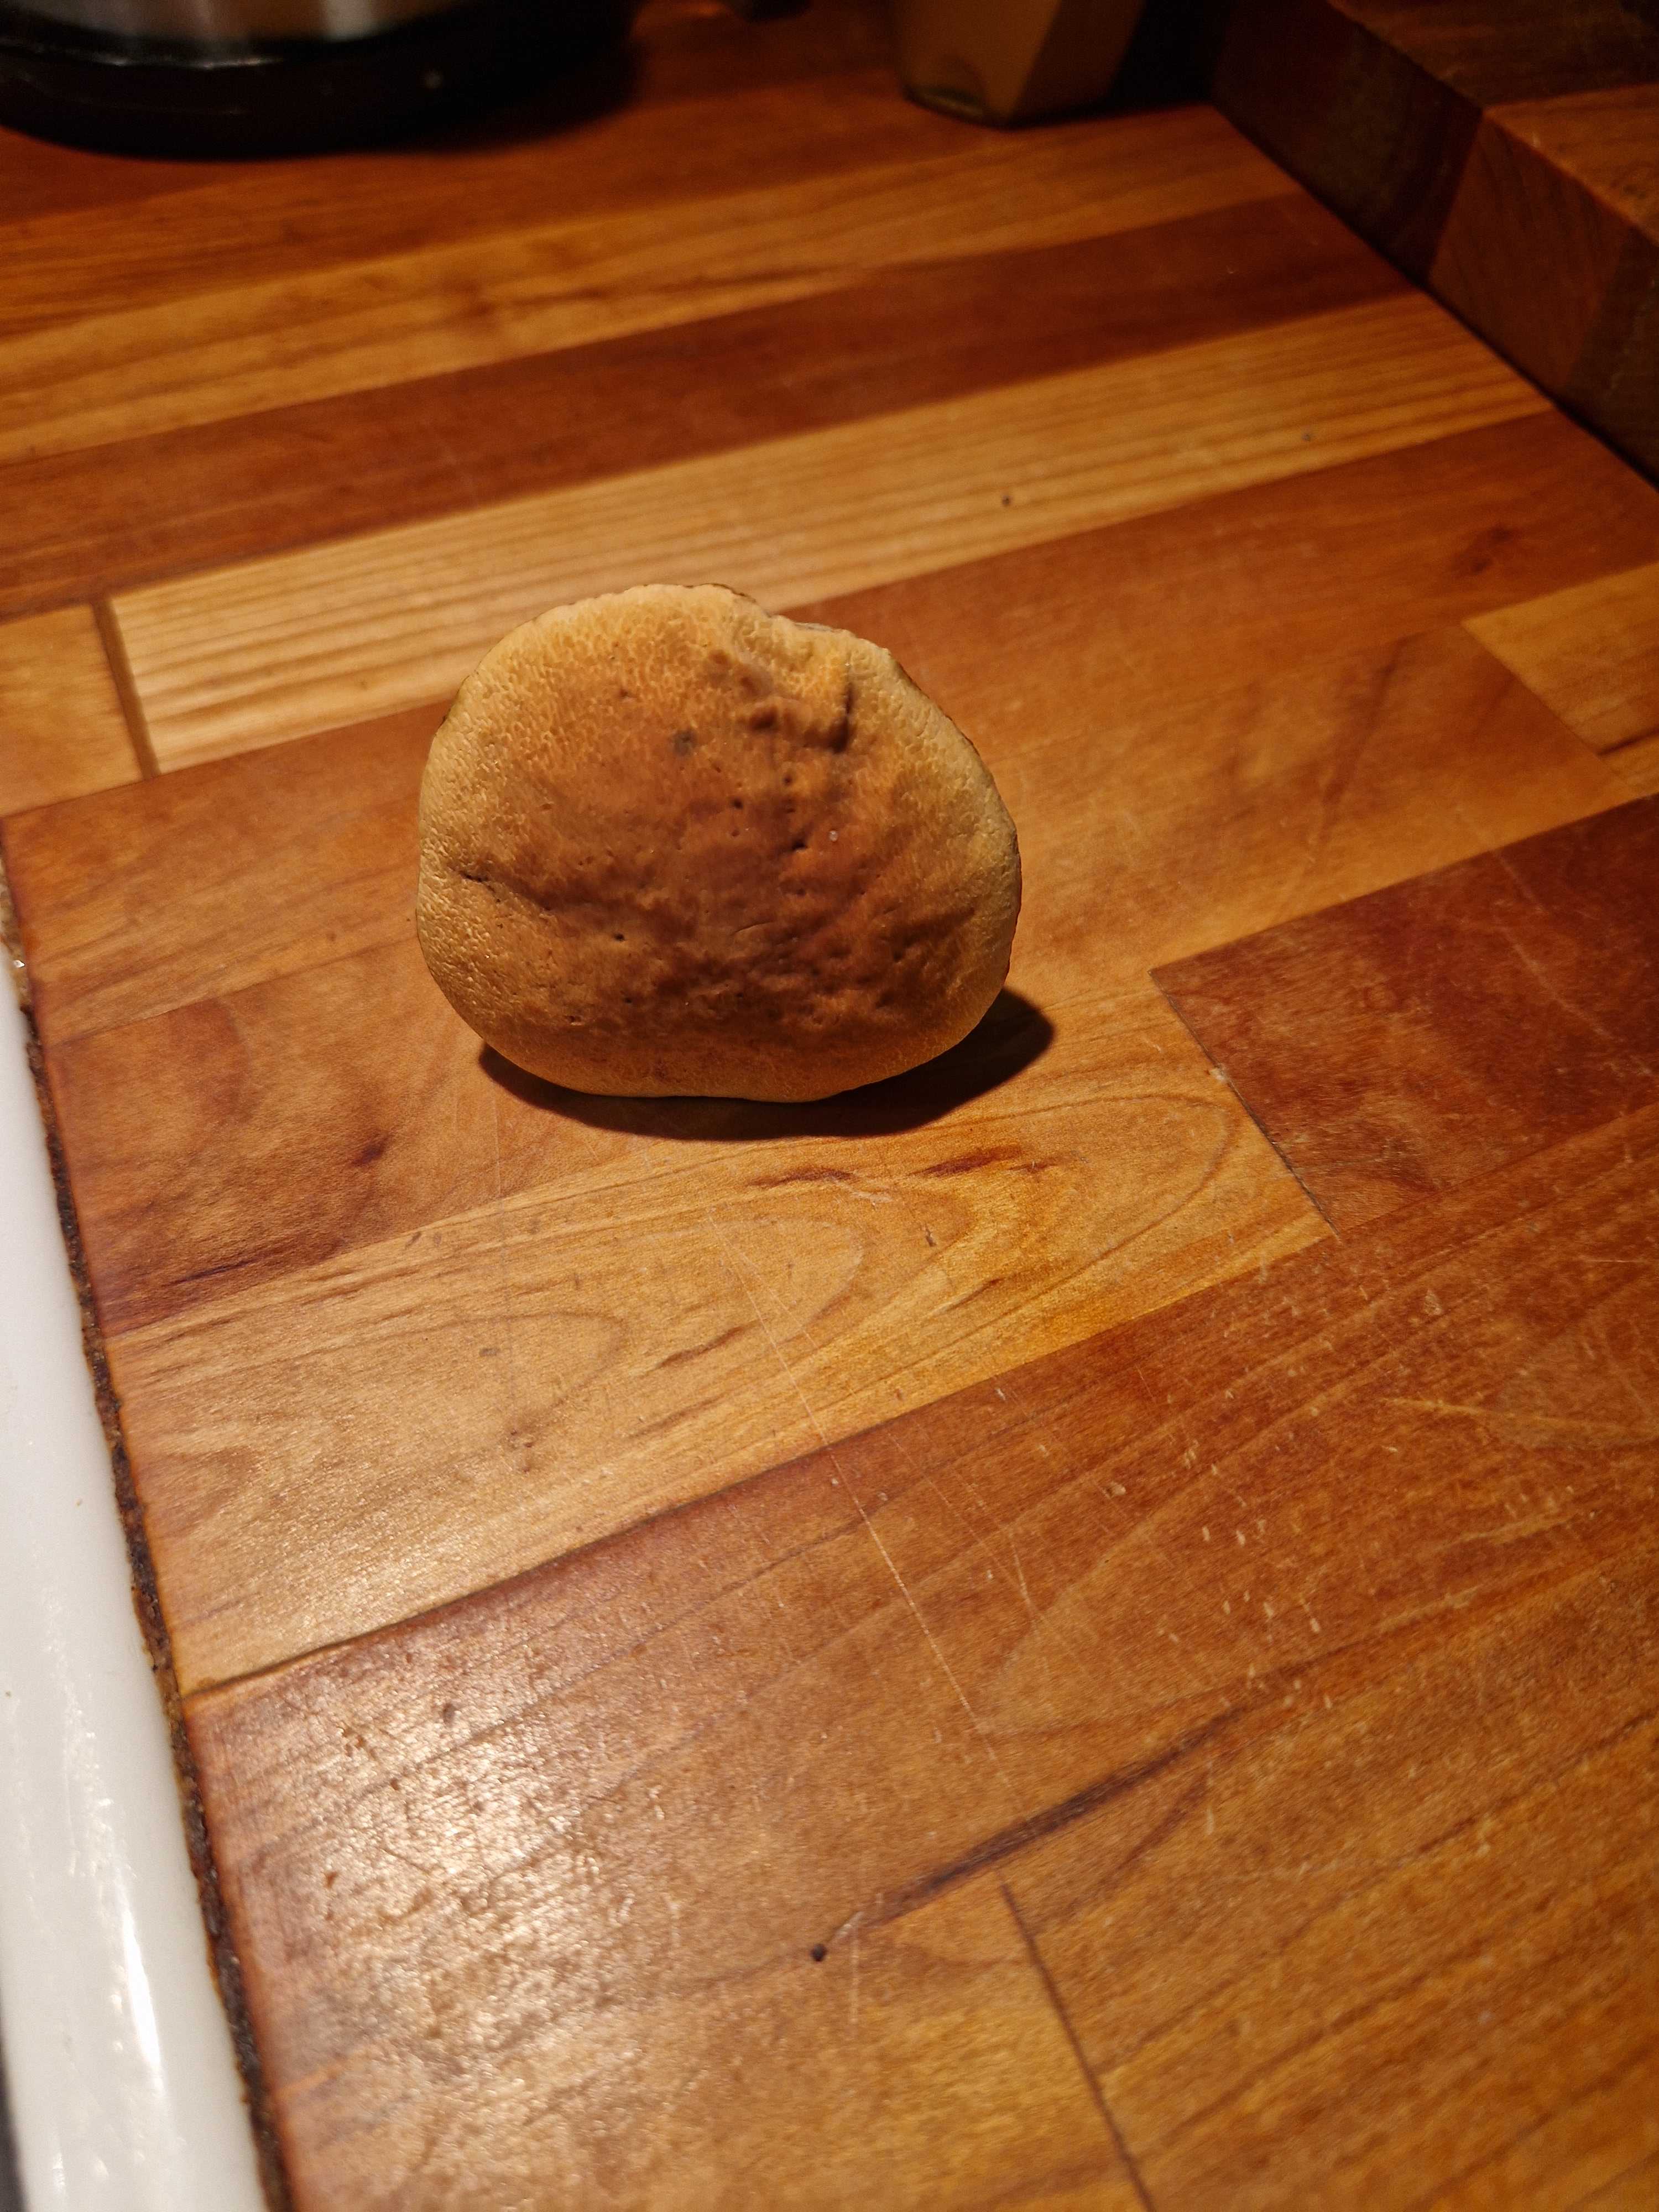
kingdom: Fungi
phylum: Basidiomycota
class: Agaricomycetes
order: Boletales
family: Boletaceae
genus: Hortiboletus
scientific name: Hortiboletus
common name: dværgrørhat
